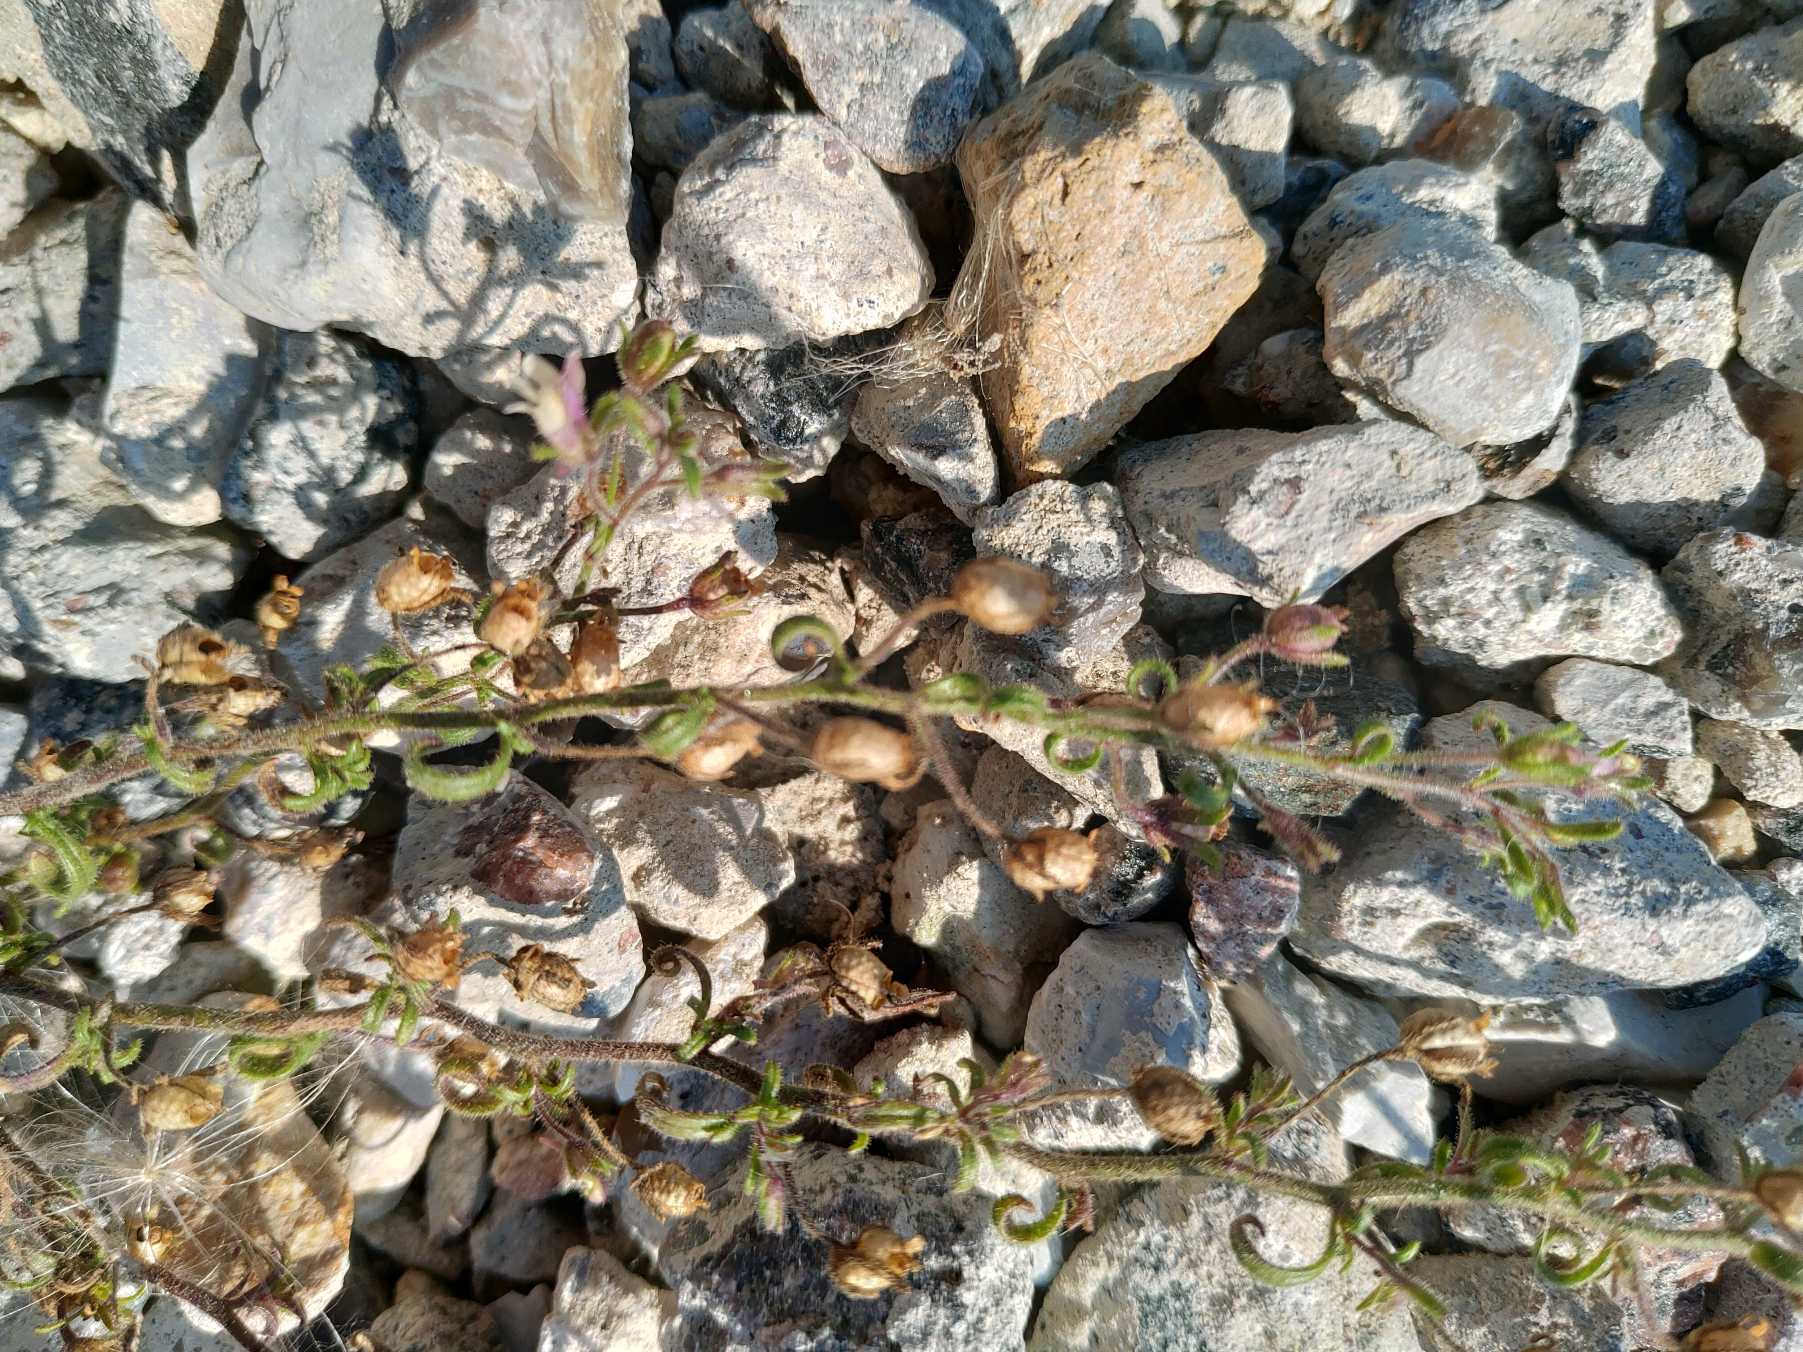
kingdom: Plantae
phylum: Tracheophyta
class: Magnoliopsida
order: Lamiales
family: Plantaginaceae
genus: Chaenorhinum
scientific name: Chaenorhinum minus
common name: Liden torskemund
